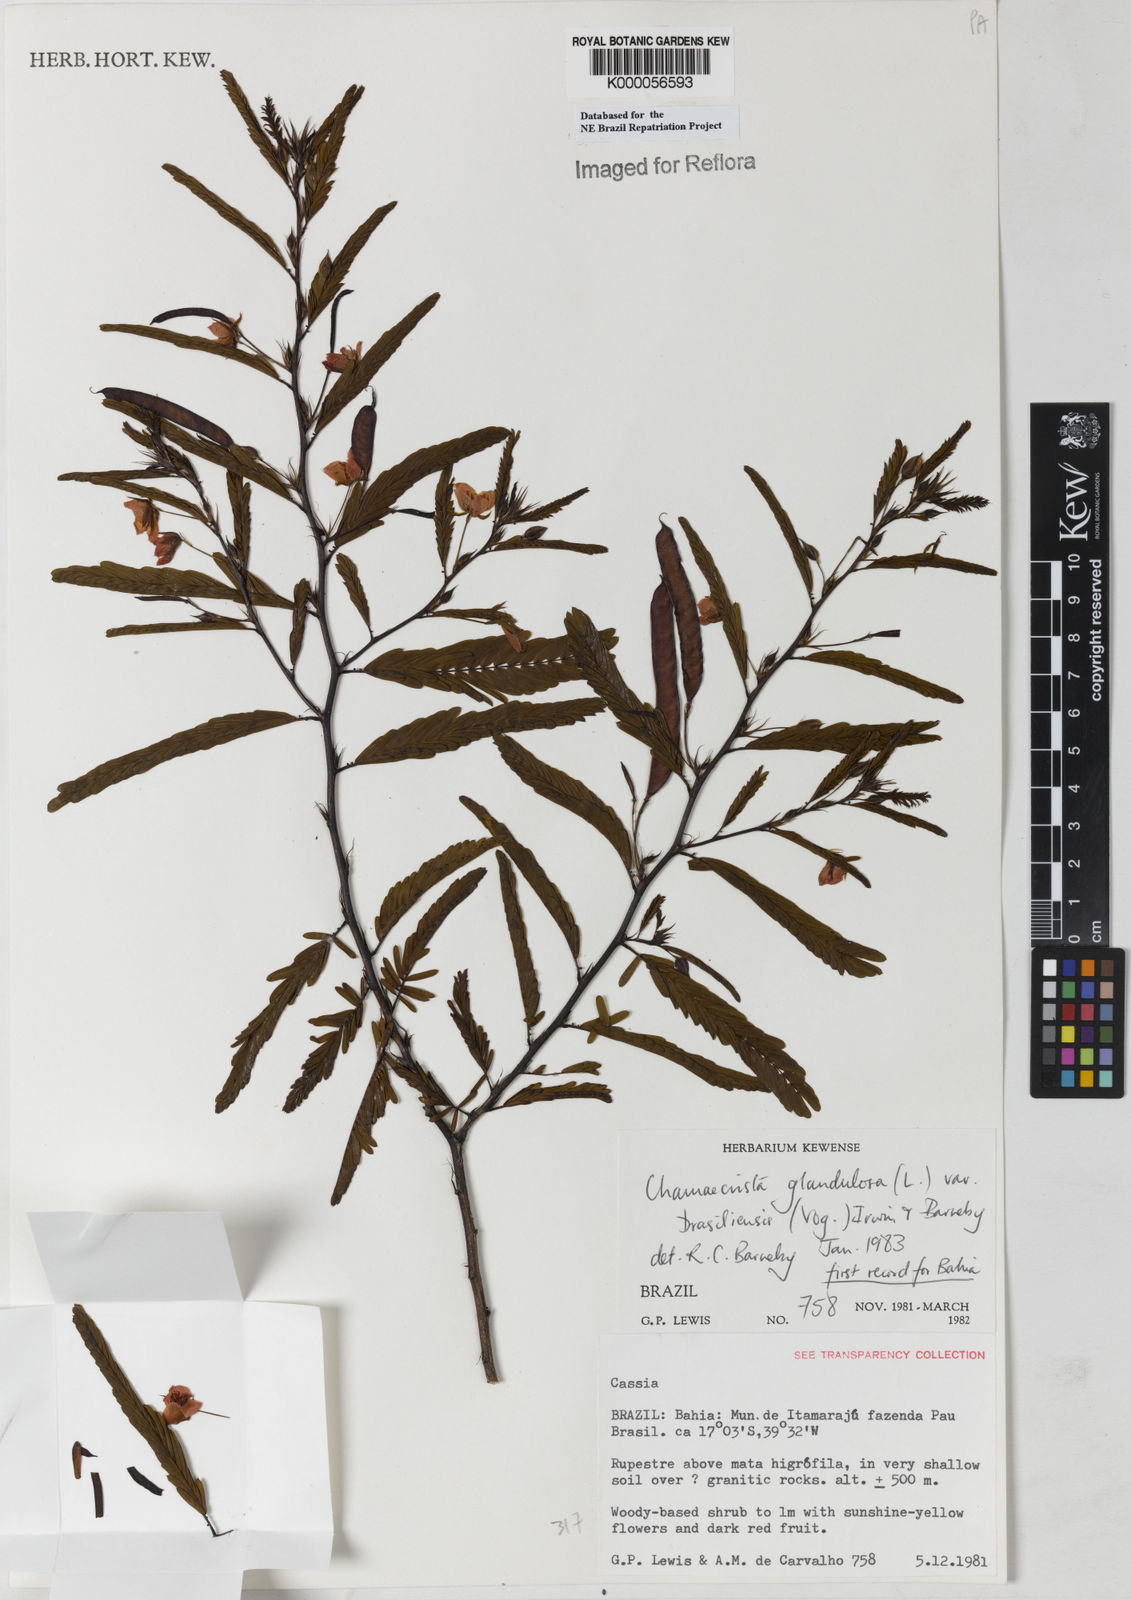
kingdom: Plantae
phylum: Tracheophyta
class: Magnoliopsida
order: Fabales
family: Fabaceae
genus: Chamaecrista
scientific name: Chamaecrista glandulosa
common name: Wild peas
